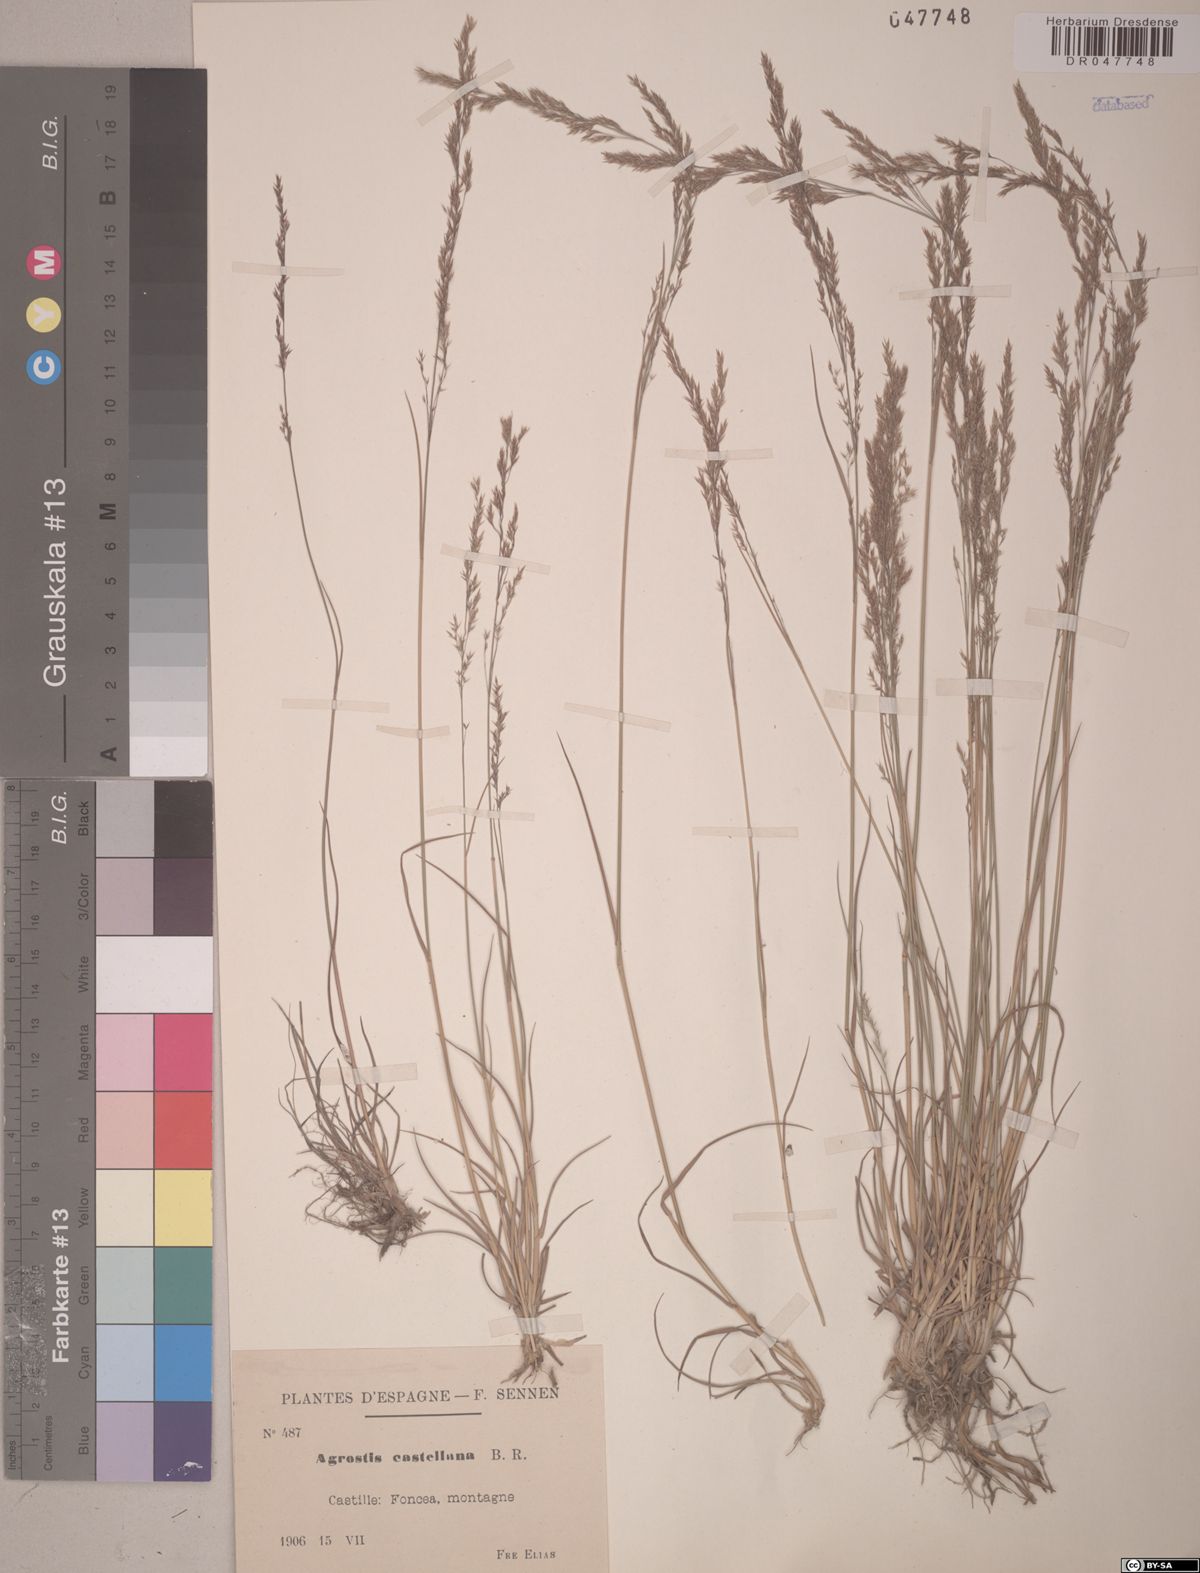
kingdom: Plantae
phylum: Tracheophyta
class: Liliopsida
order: Poales
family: Poaceae
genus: Agrostis
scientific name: Agrostis castellana
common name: Highland bent
